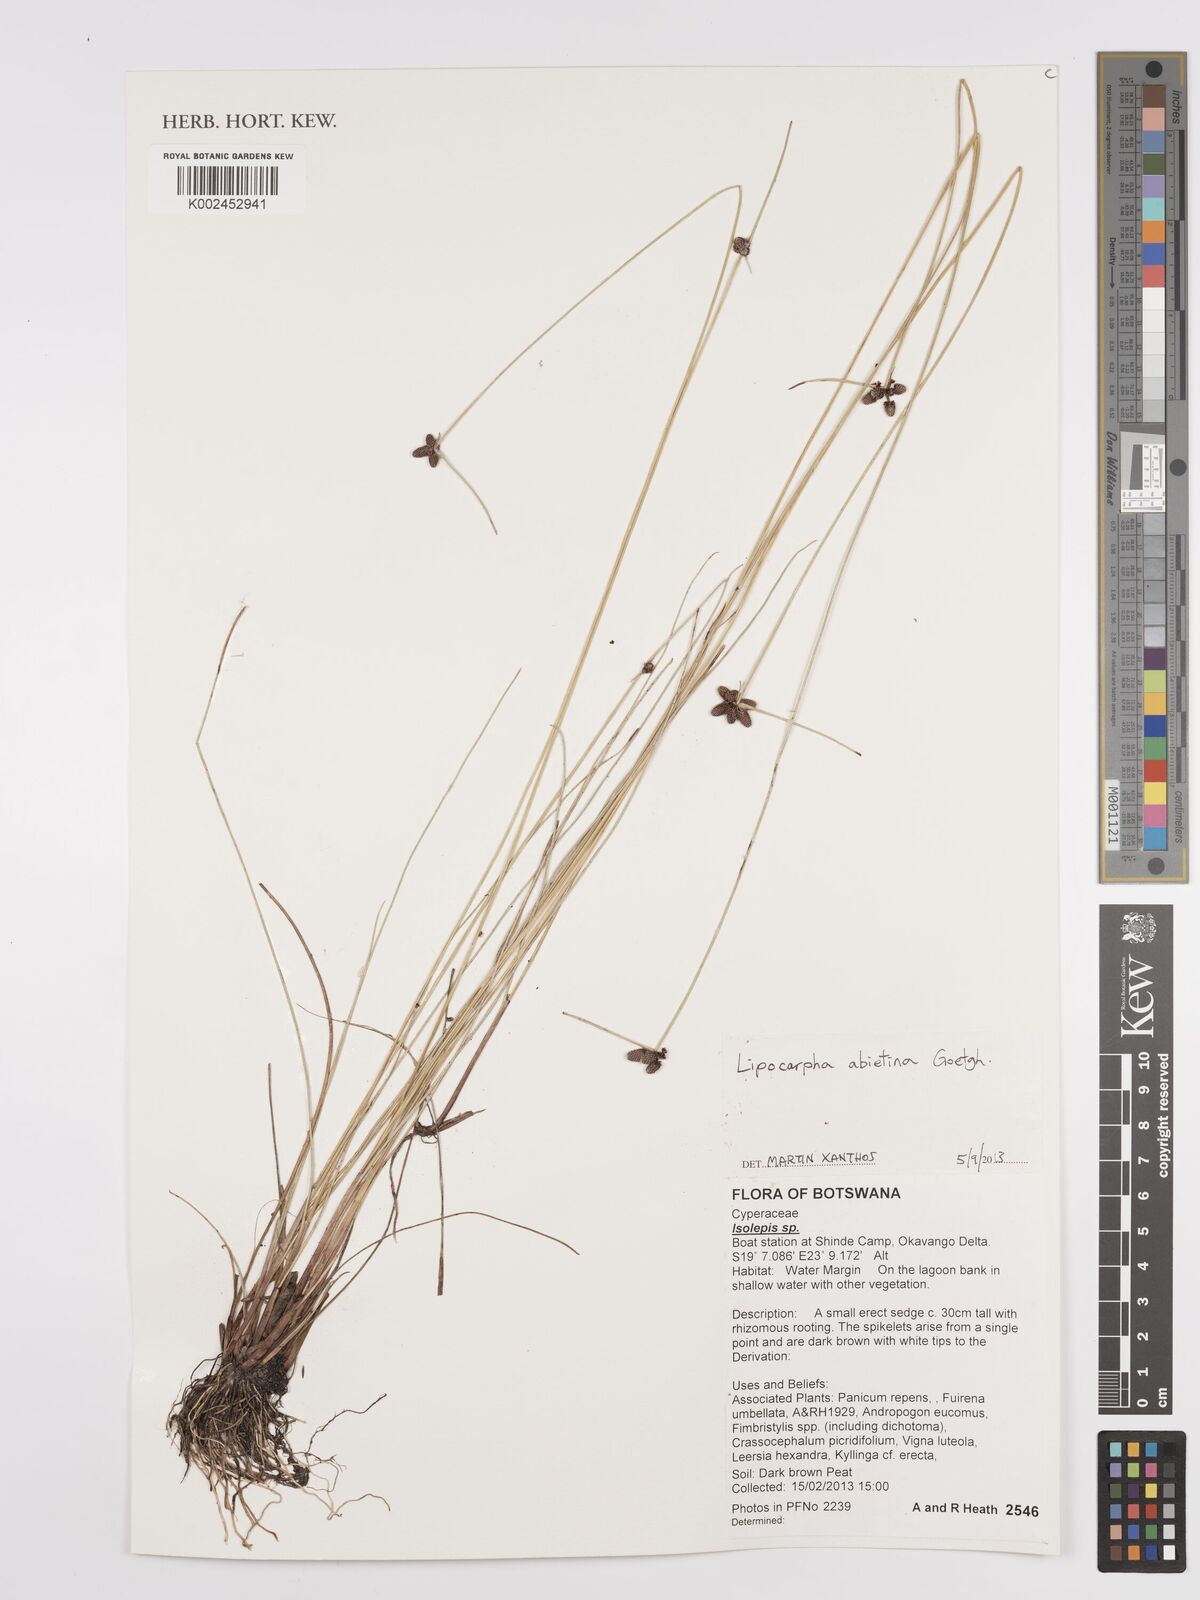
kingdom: Plantae
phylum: Tracheophyta
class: Liliopsida
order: Poales
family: Cyperaceae
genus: Cyperus
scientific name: Cyperus abietinus
